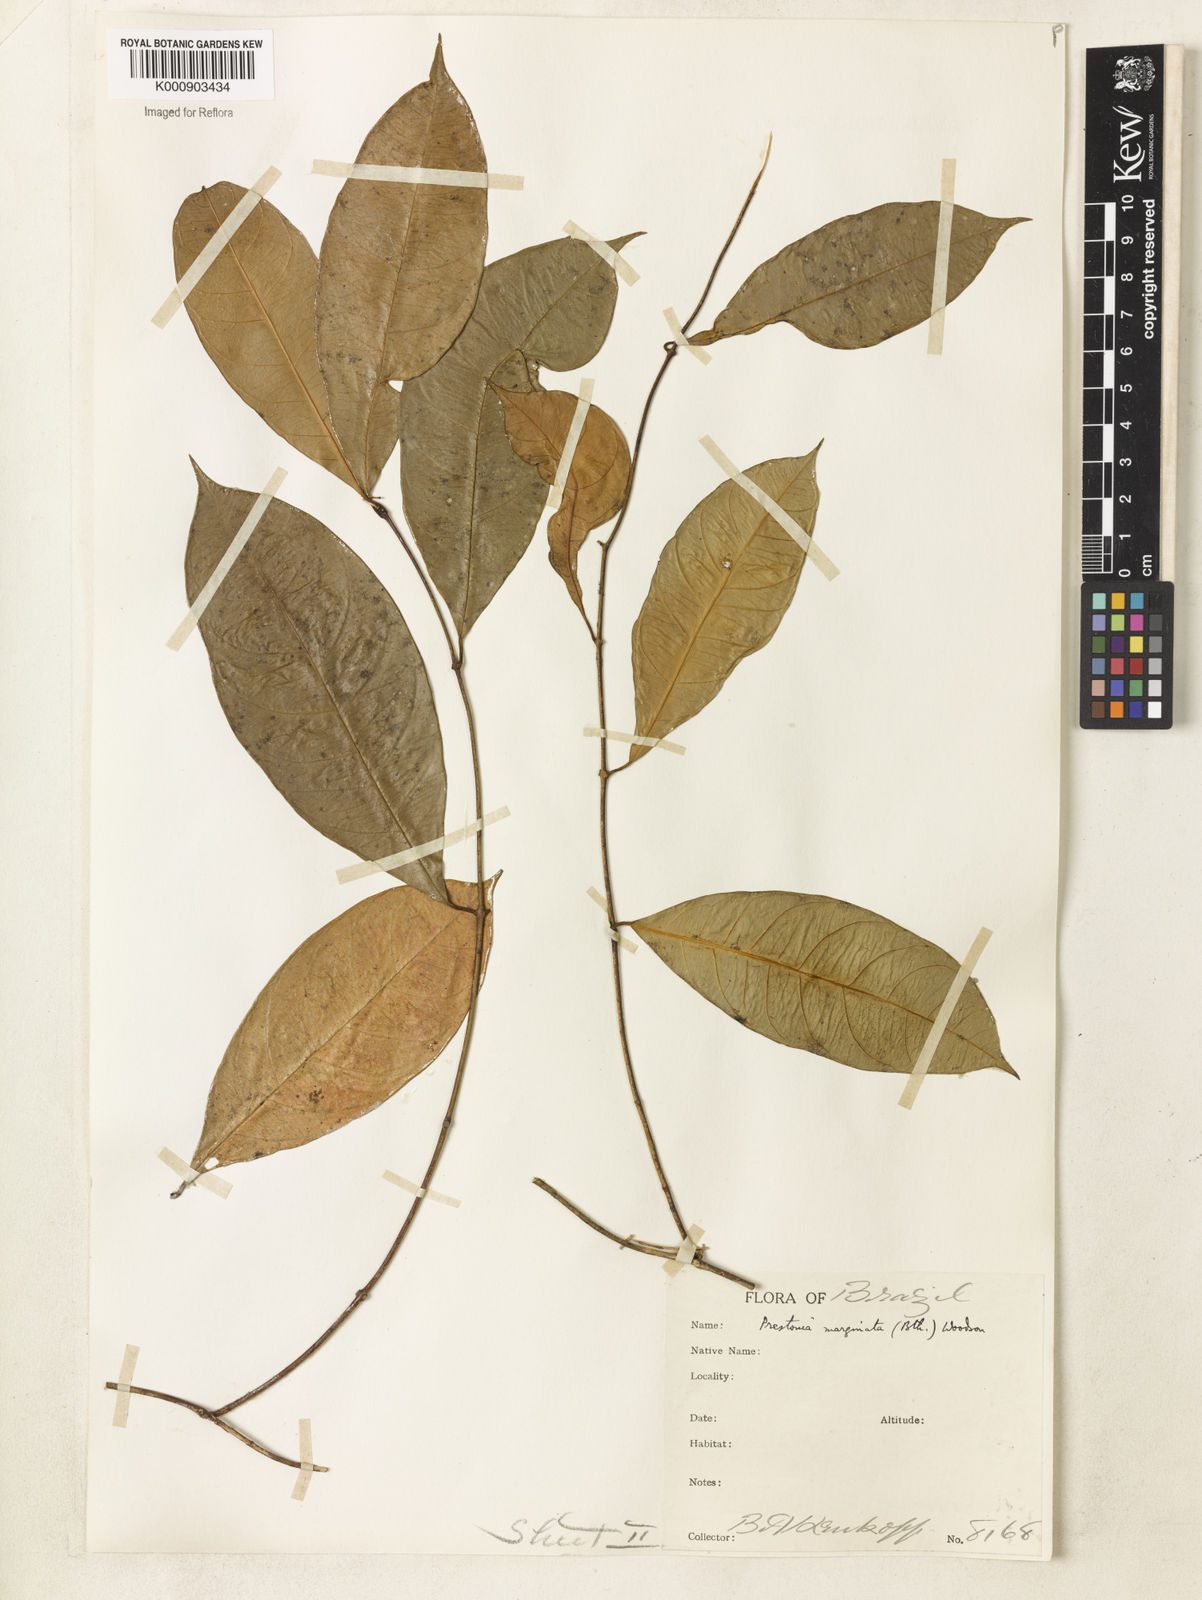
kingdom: Plantae
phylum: Tracheophyta
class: Magnoliopsida
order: Gentianales
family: Apocynaceae
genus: Prestonia
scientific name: Prestonia cayennensis
